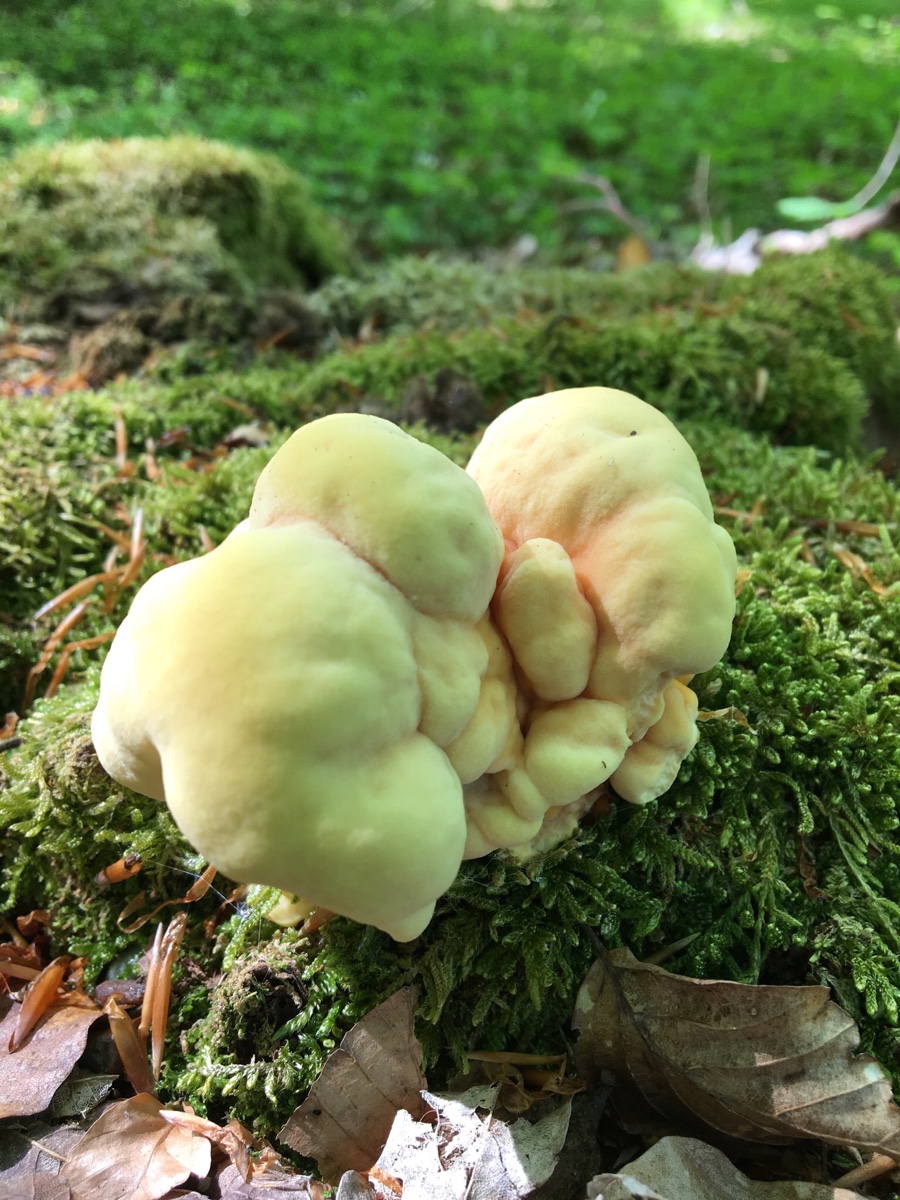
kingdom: Fungi
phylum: Basidiomycota
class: Agaricomycetes
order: Polyporales
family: Laetiporaceae
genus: Laetiporus
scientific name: Laetiporus sulphureus
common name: svovlporesvamp
